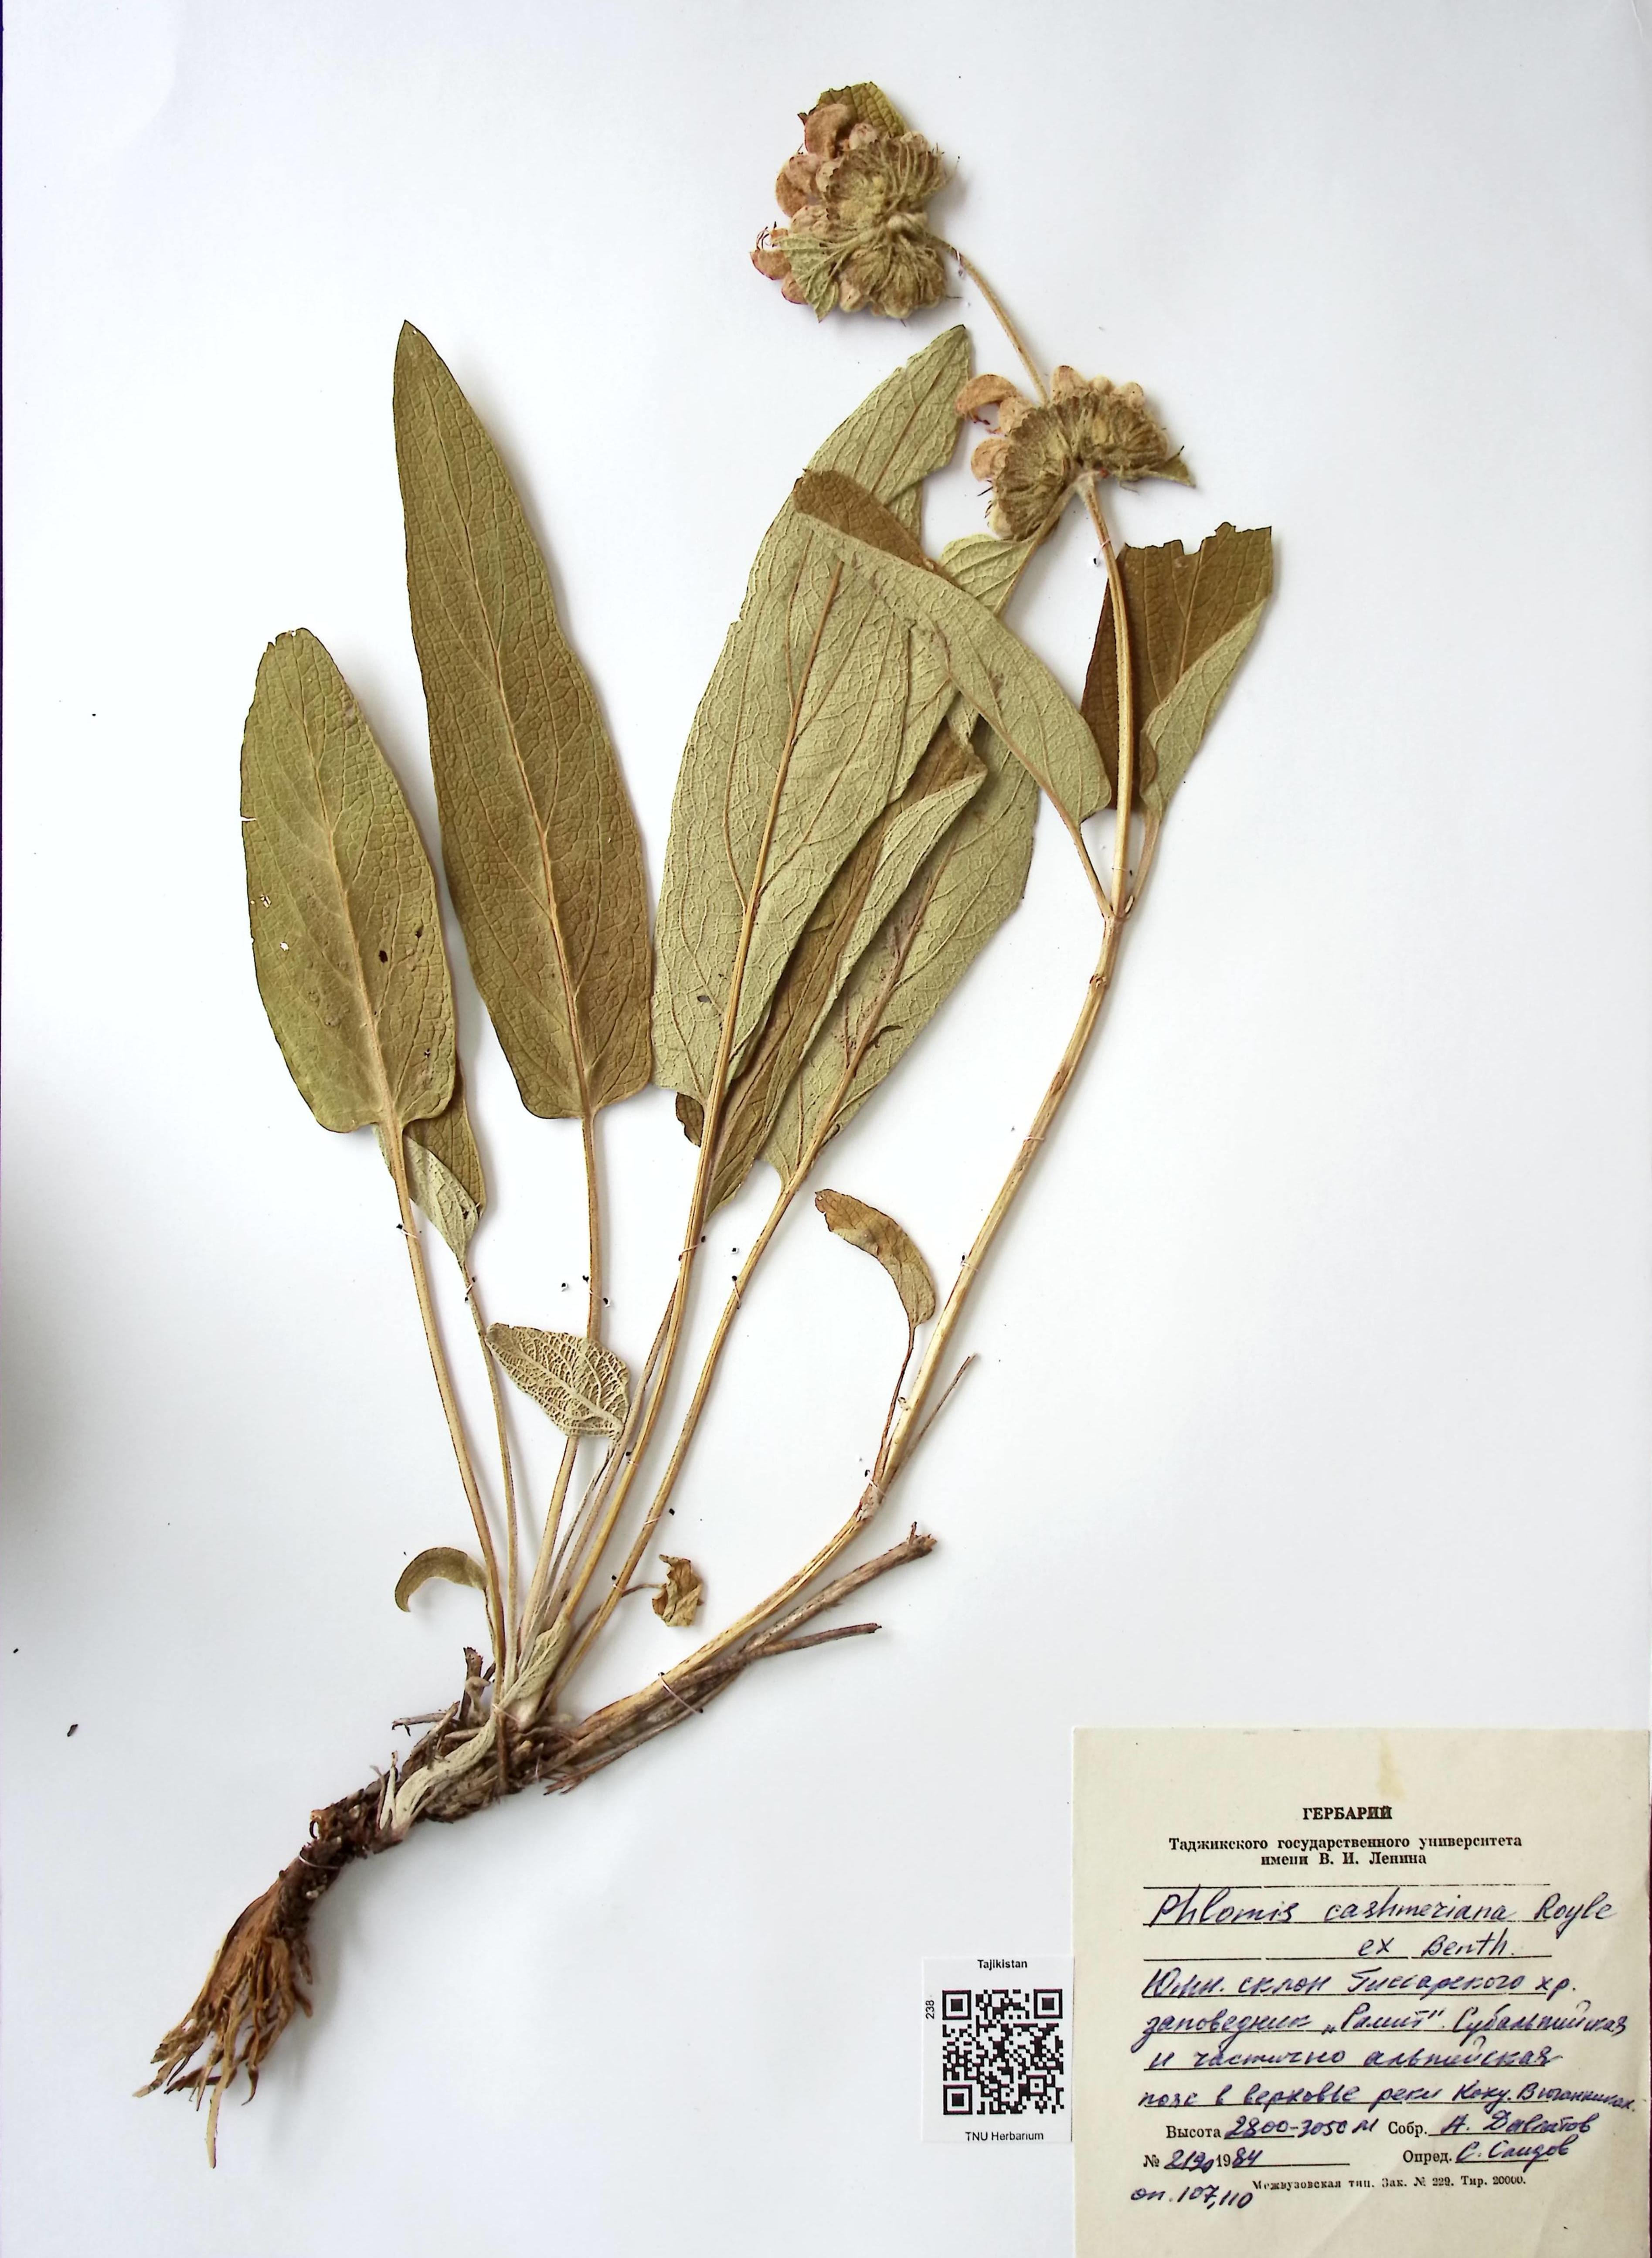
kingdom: Plantae
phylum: Tracheophyta
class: Magnoliopsida
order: Lamiales
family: Lamiaceae
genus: Phlomis
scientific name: Phlomis cashmeriana
